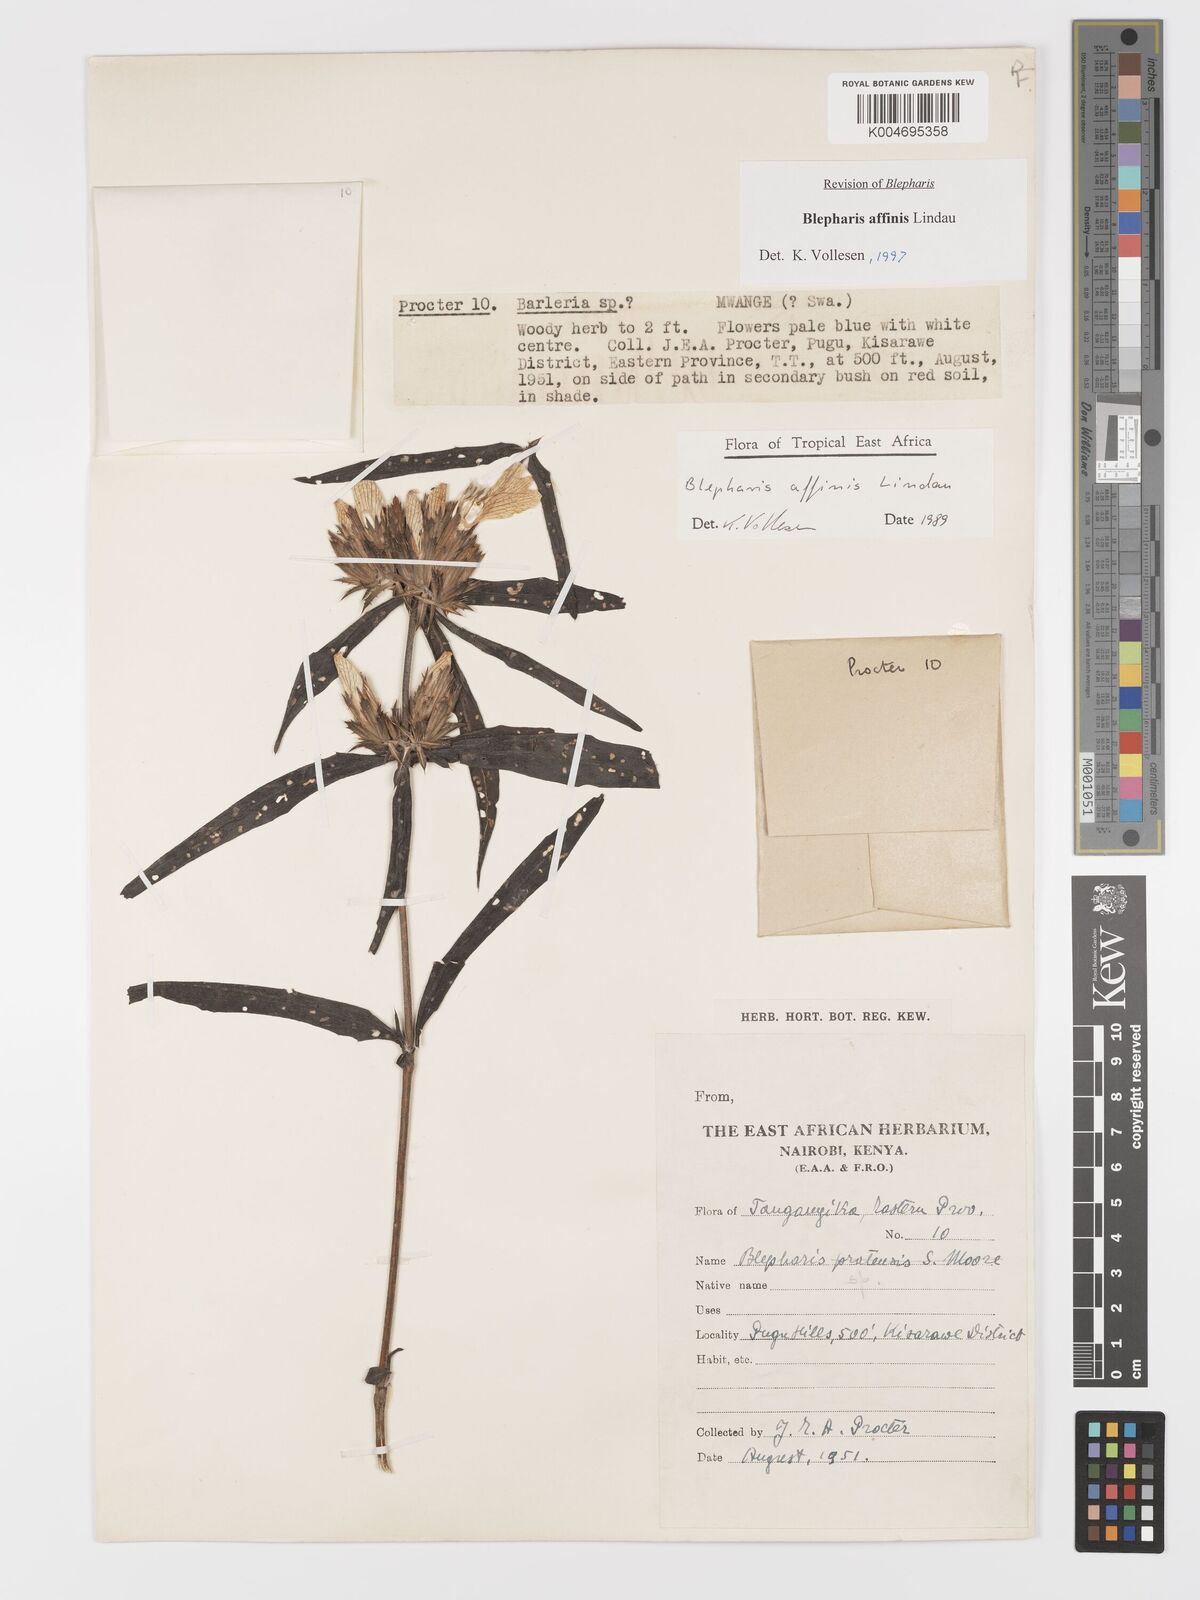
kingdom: Plantae
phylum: Tracheophyta
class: Magnoliopsida
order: Lamiales
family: Acanthaceae
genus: Blepharis
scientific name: Blepharis affinis
